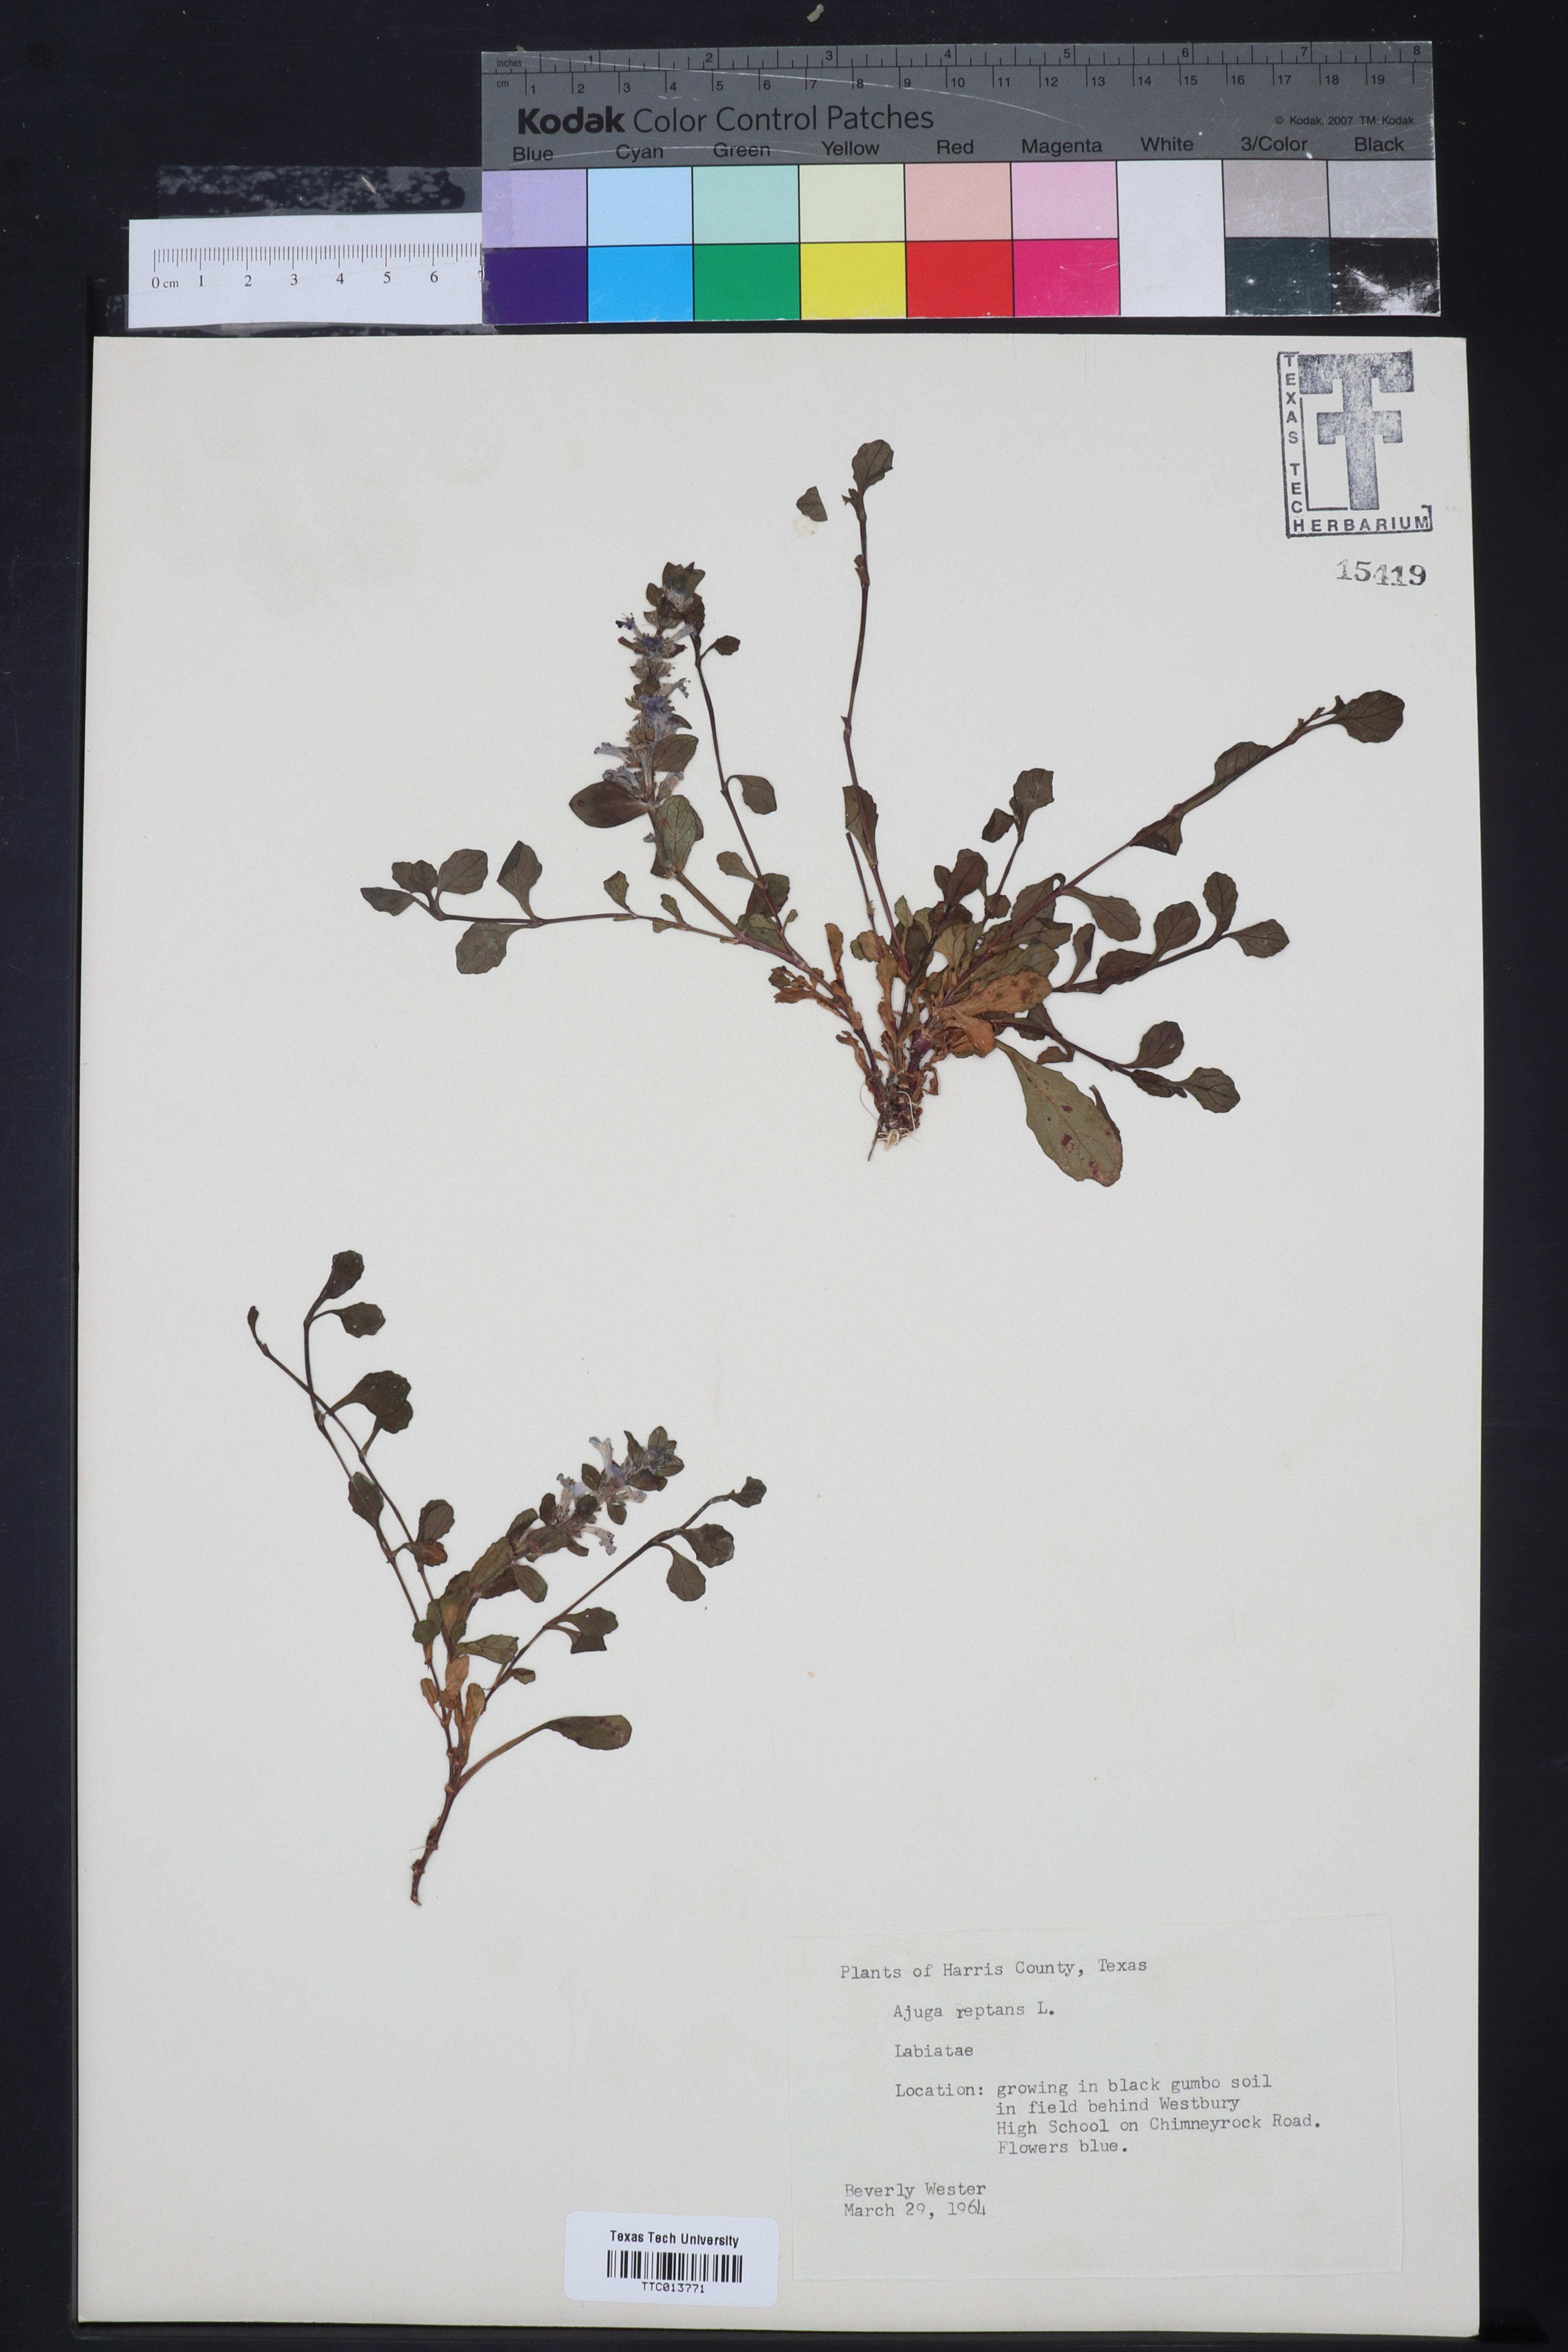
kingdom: Plantae
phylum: Tracheophyta
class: Magnoliopsida
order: Lamiales
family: Lamiaceae
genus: Ajuga
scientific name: Ajuga reptans
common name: Bugle
